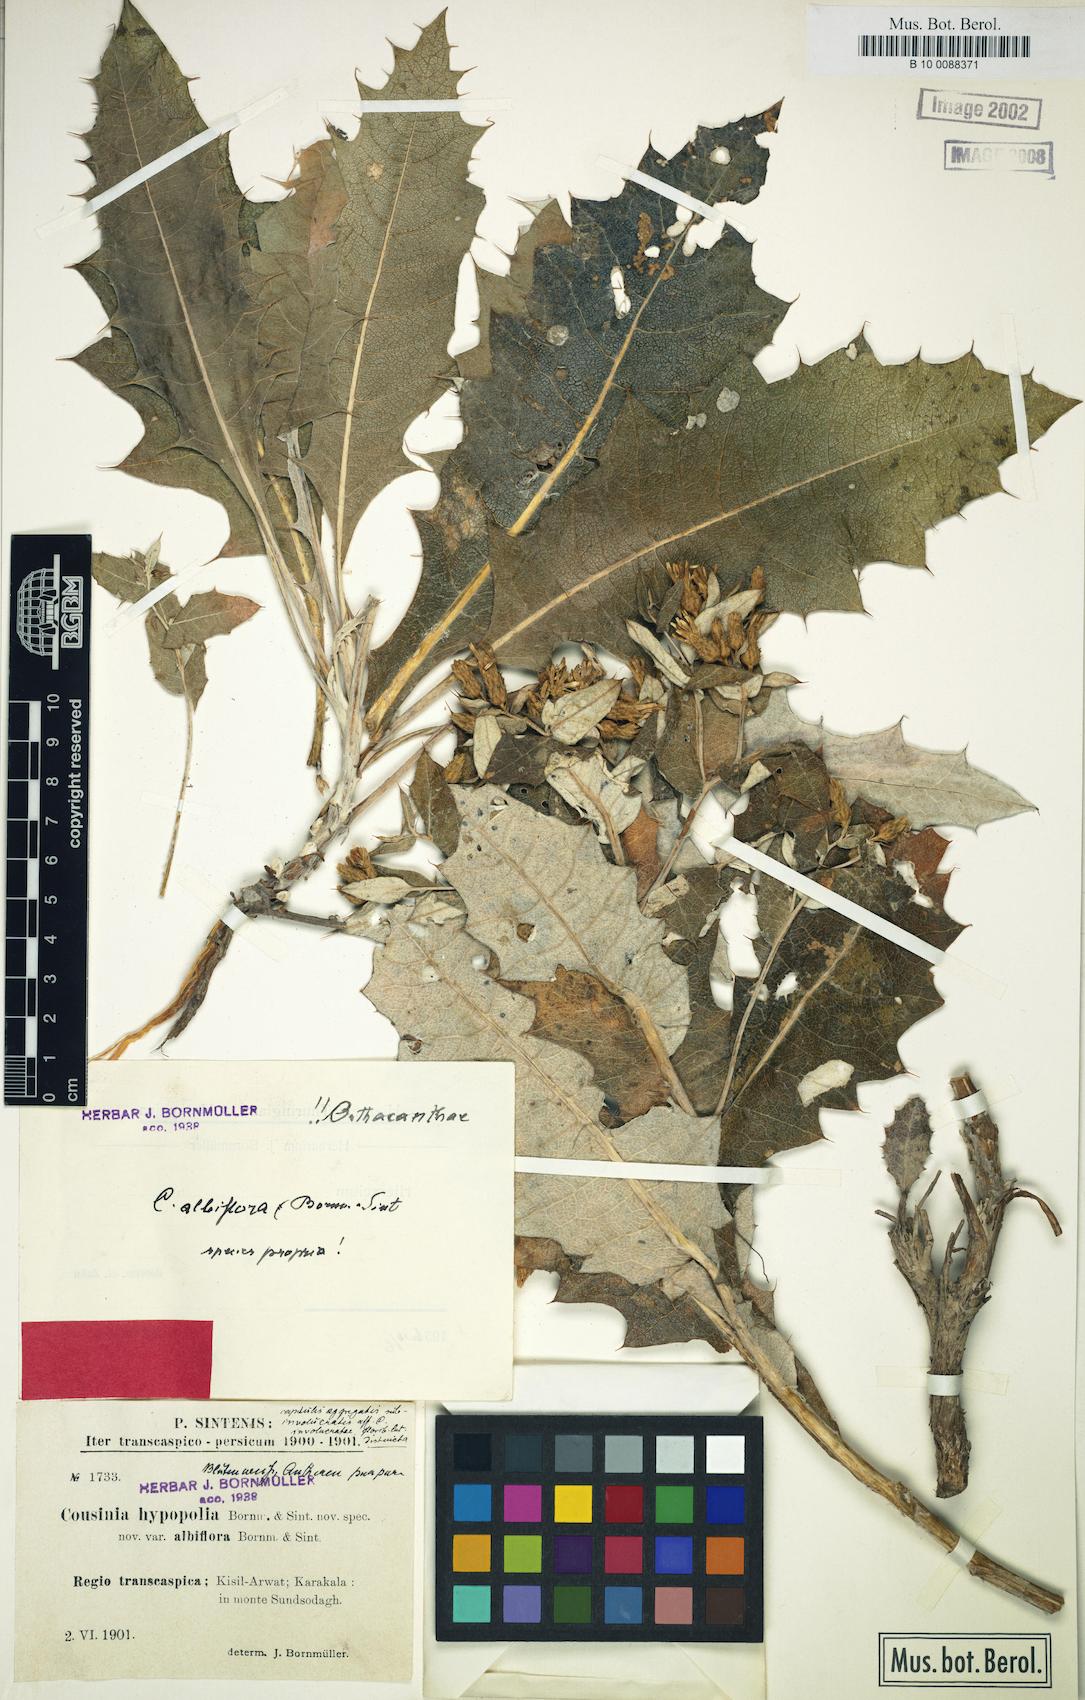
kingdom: Plantae
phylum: Tracheophyta
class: Magnoliopsida
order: Asterales
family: Asteraceae
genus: Cousinia
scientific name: Cousinia albiflora
